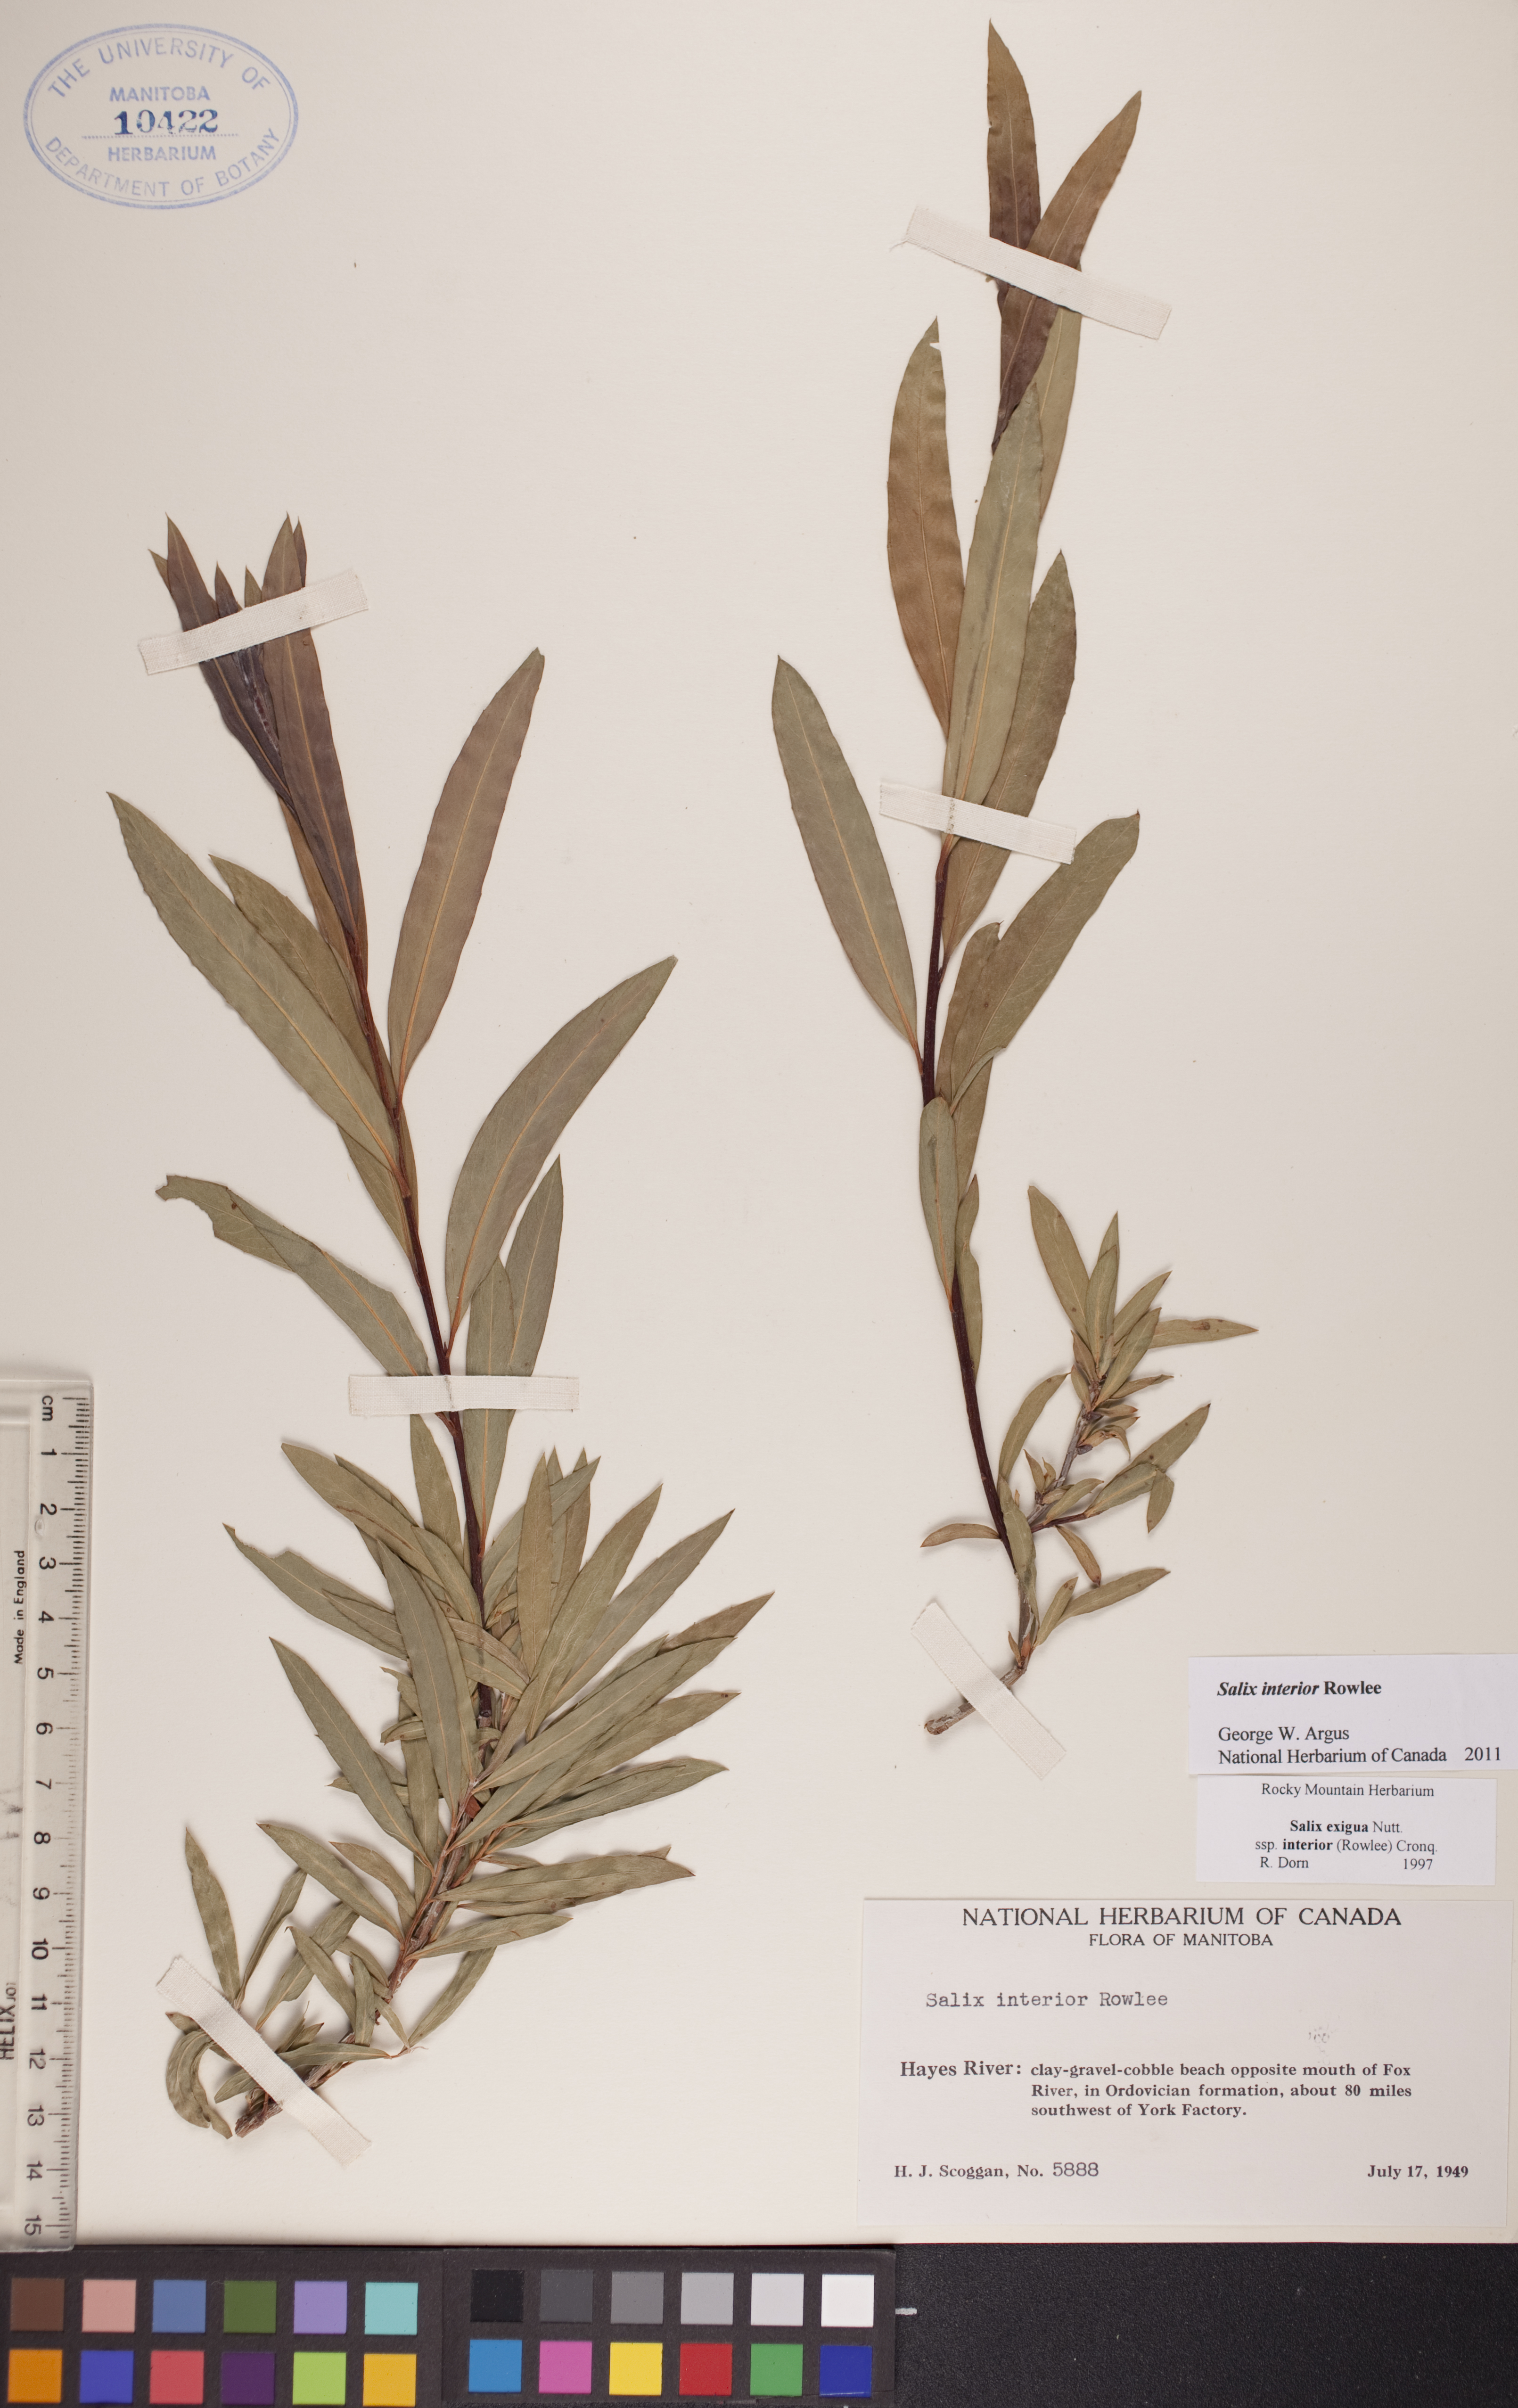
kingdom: Plantae
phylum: Tracheophyta
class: Magnoliopsida
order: Malpighiales
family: Salicaceae
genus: Salix
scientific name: Salix interior
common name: Sandbar willow
